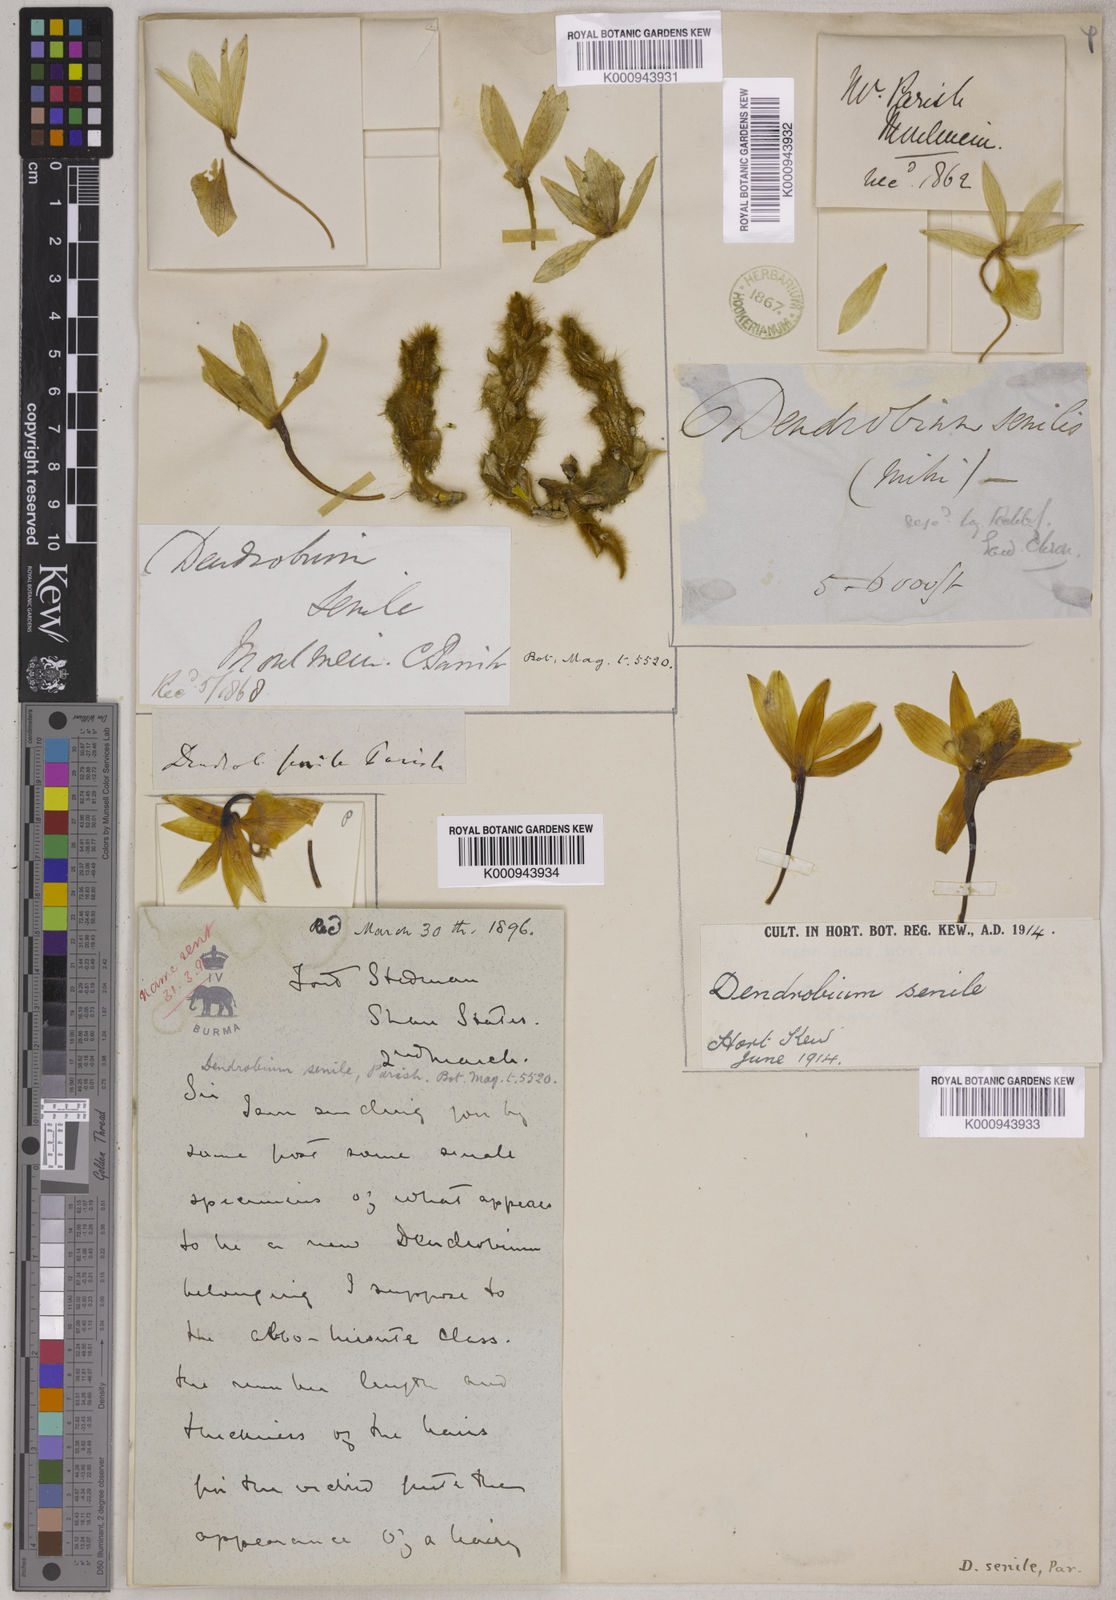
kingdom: Plantae
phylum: Tracheophyta
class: Liliopsida
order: Asparagales
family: Orchidaceae
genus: Dendrobium
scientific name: Dendrobium senile
